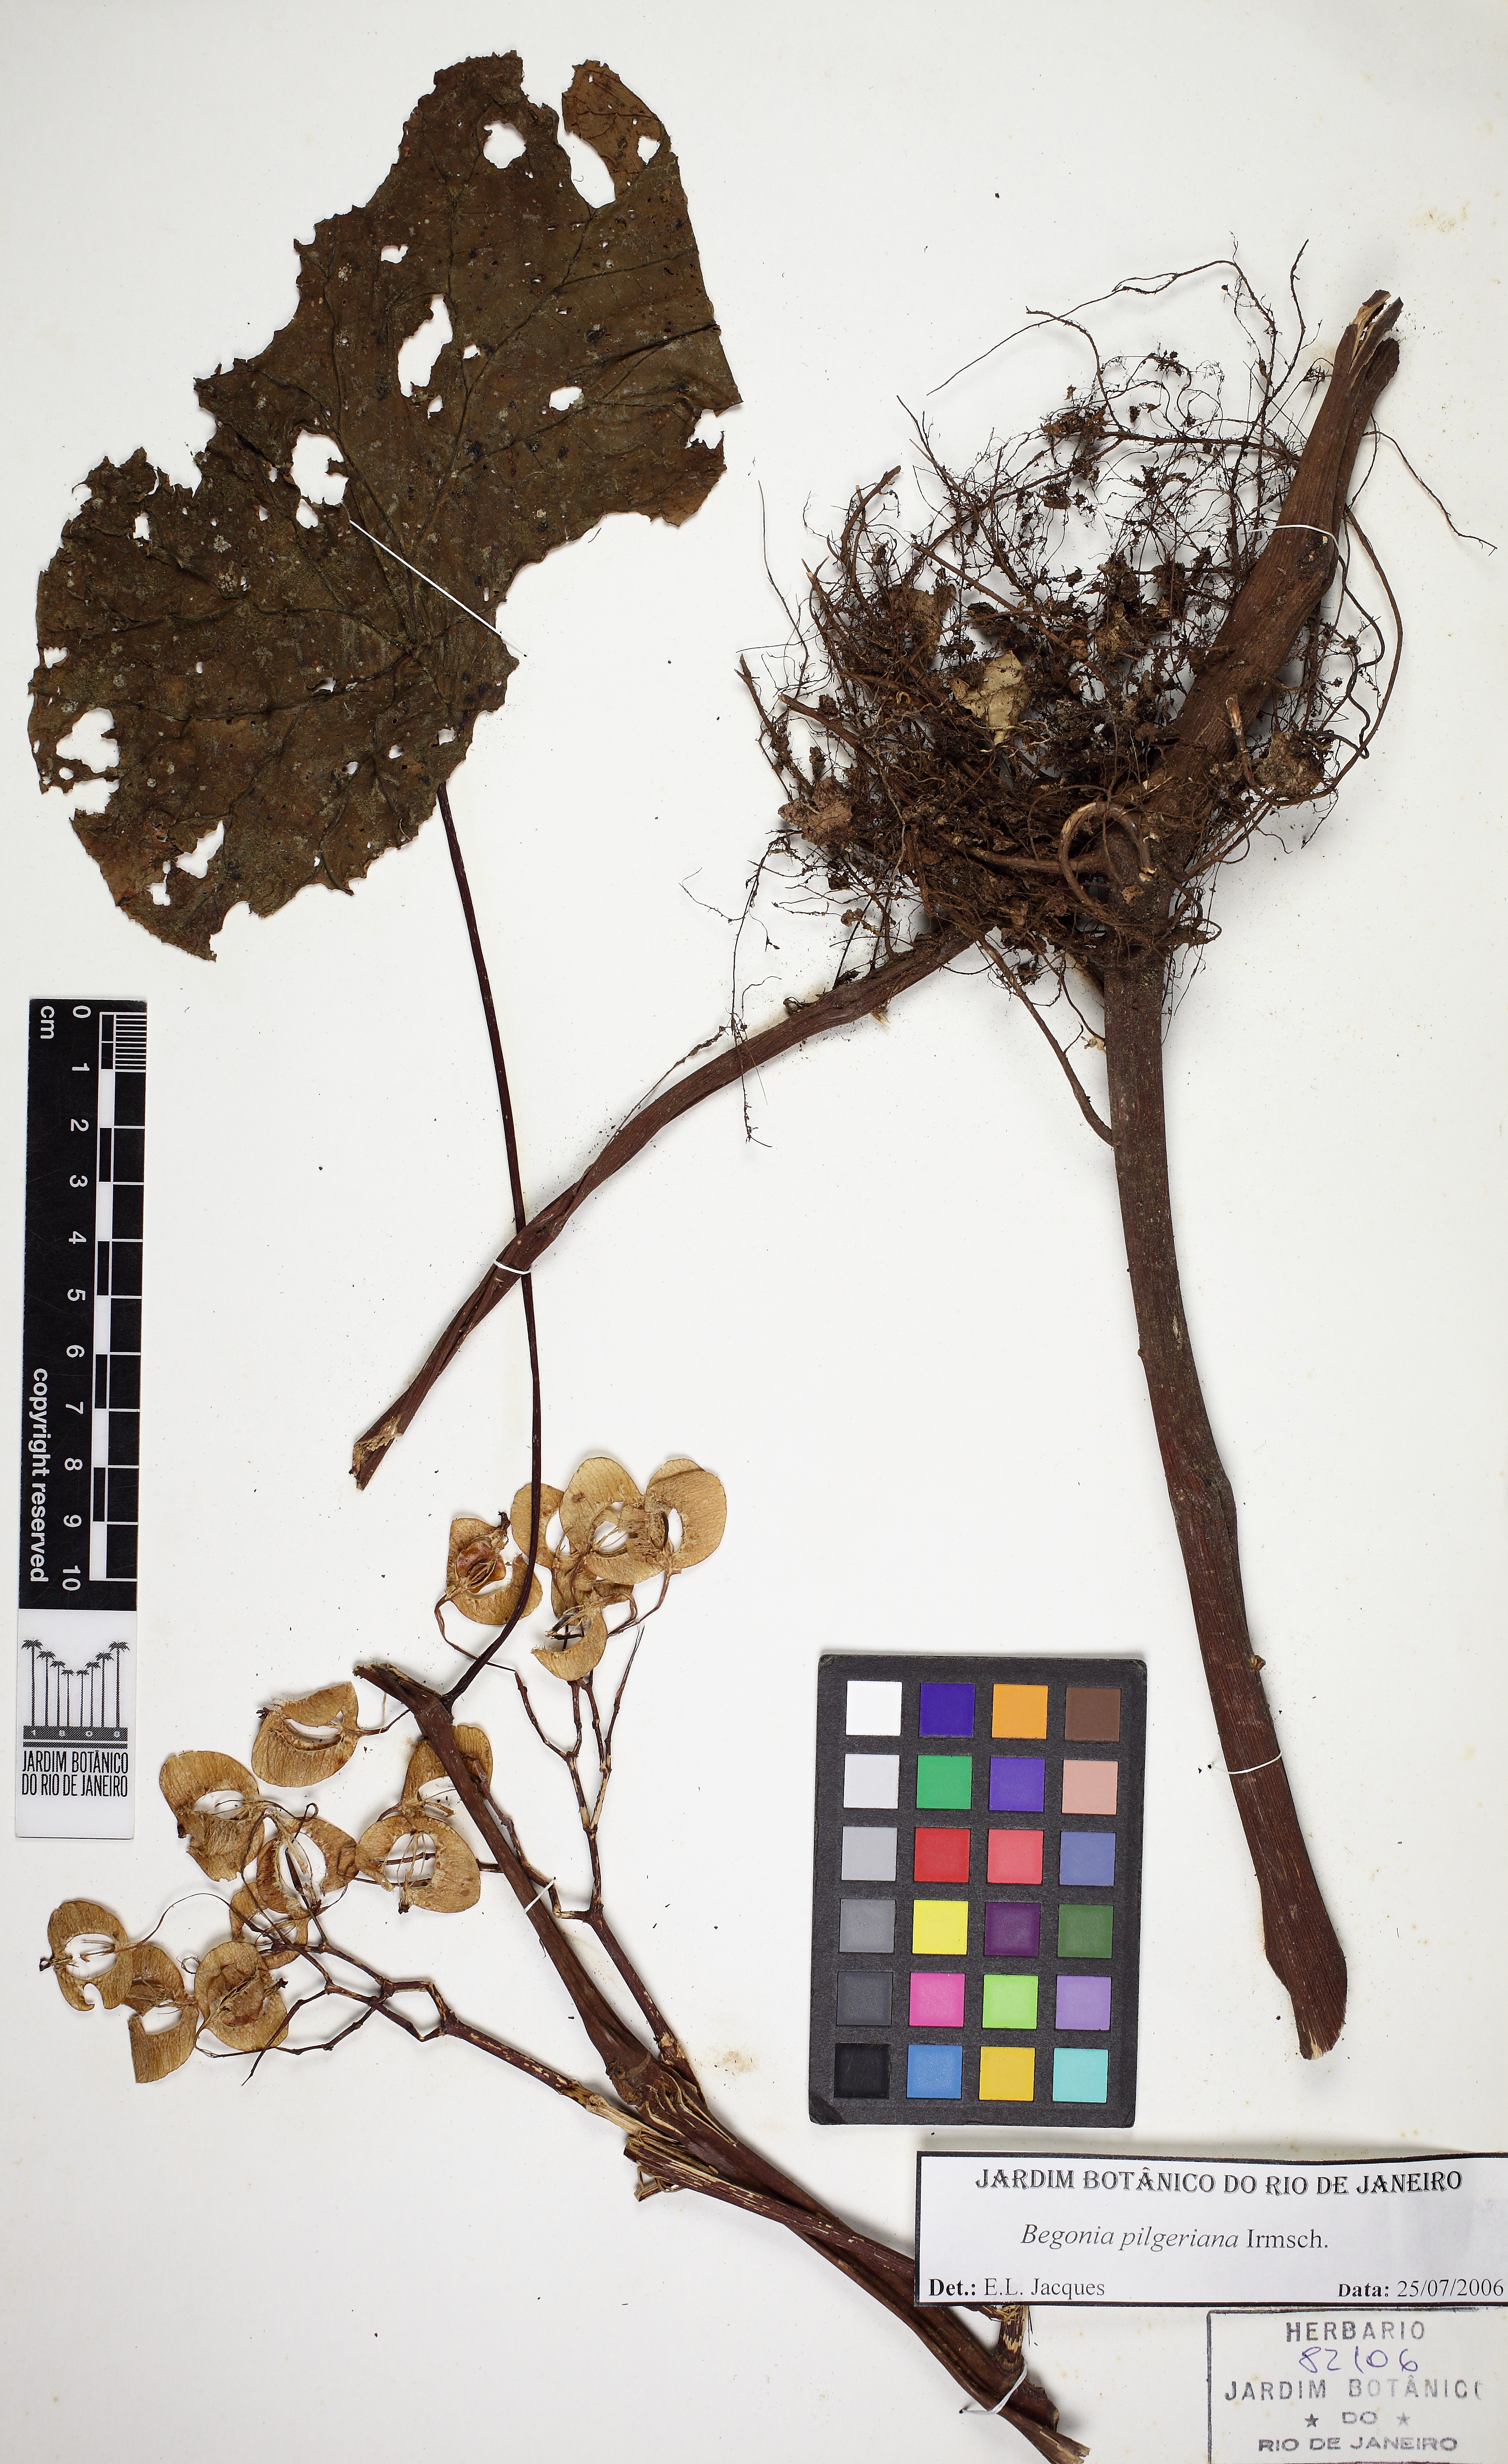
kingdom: Plantae
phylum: Tracheophyta
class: Magnoliopsida
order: Cucurbitales
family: Begoniaceae
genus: Begonia
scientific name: Begonia pilgeriana
